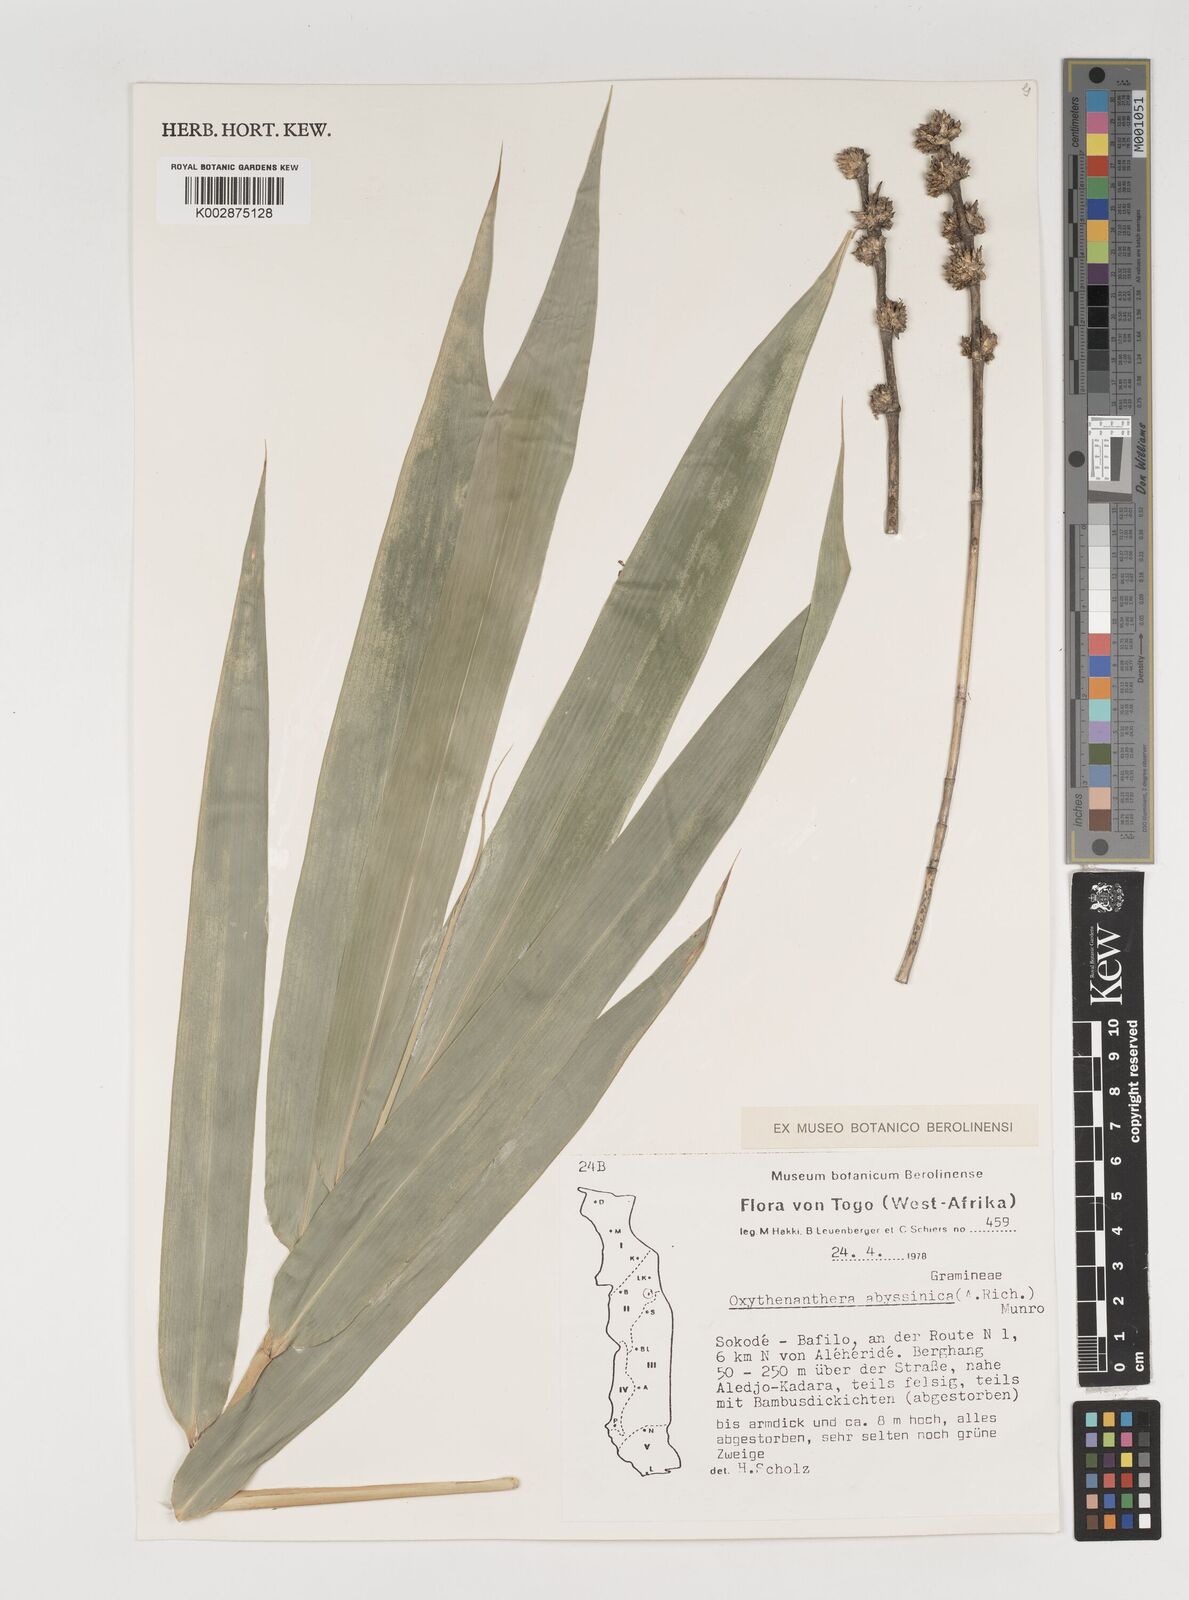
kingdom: Plantae
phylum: Tracheophyta
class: Liliopsida
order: Poales
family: Poaceae
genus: Oxytenanthera
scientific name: Oxytenanthera abyssinica
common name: Wine bamboo
